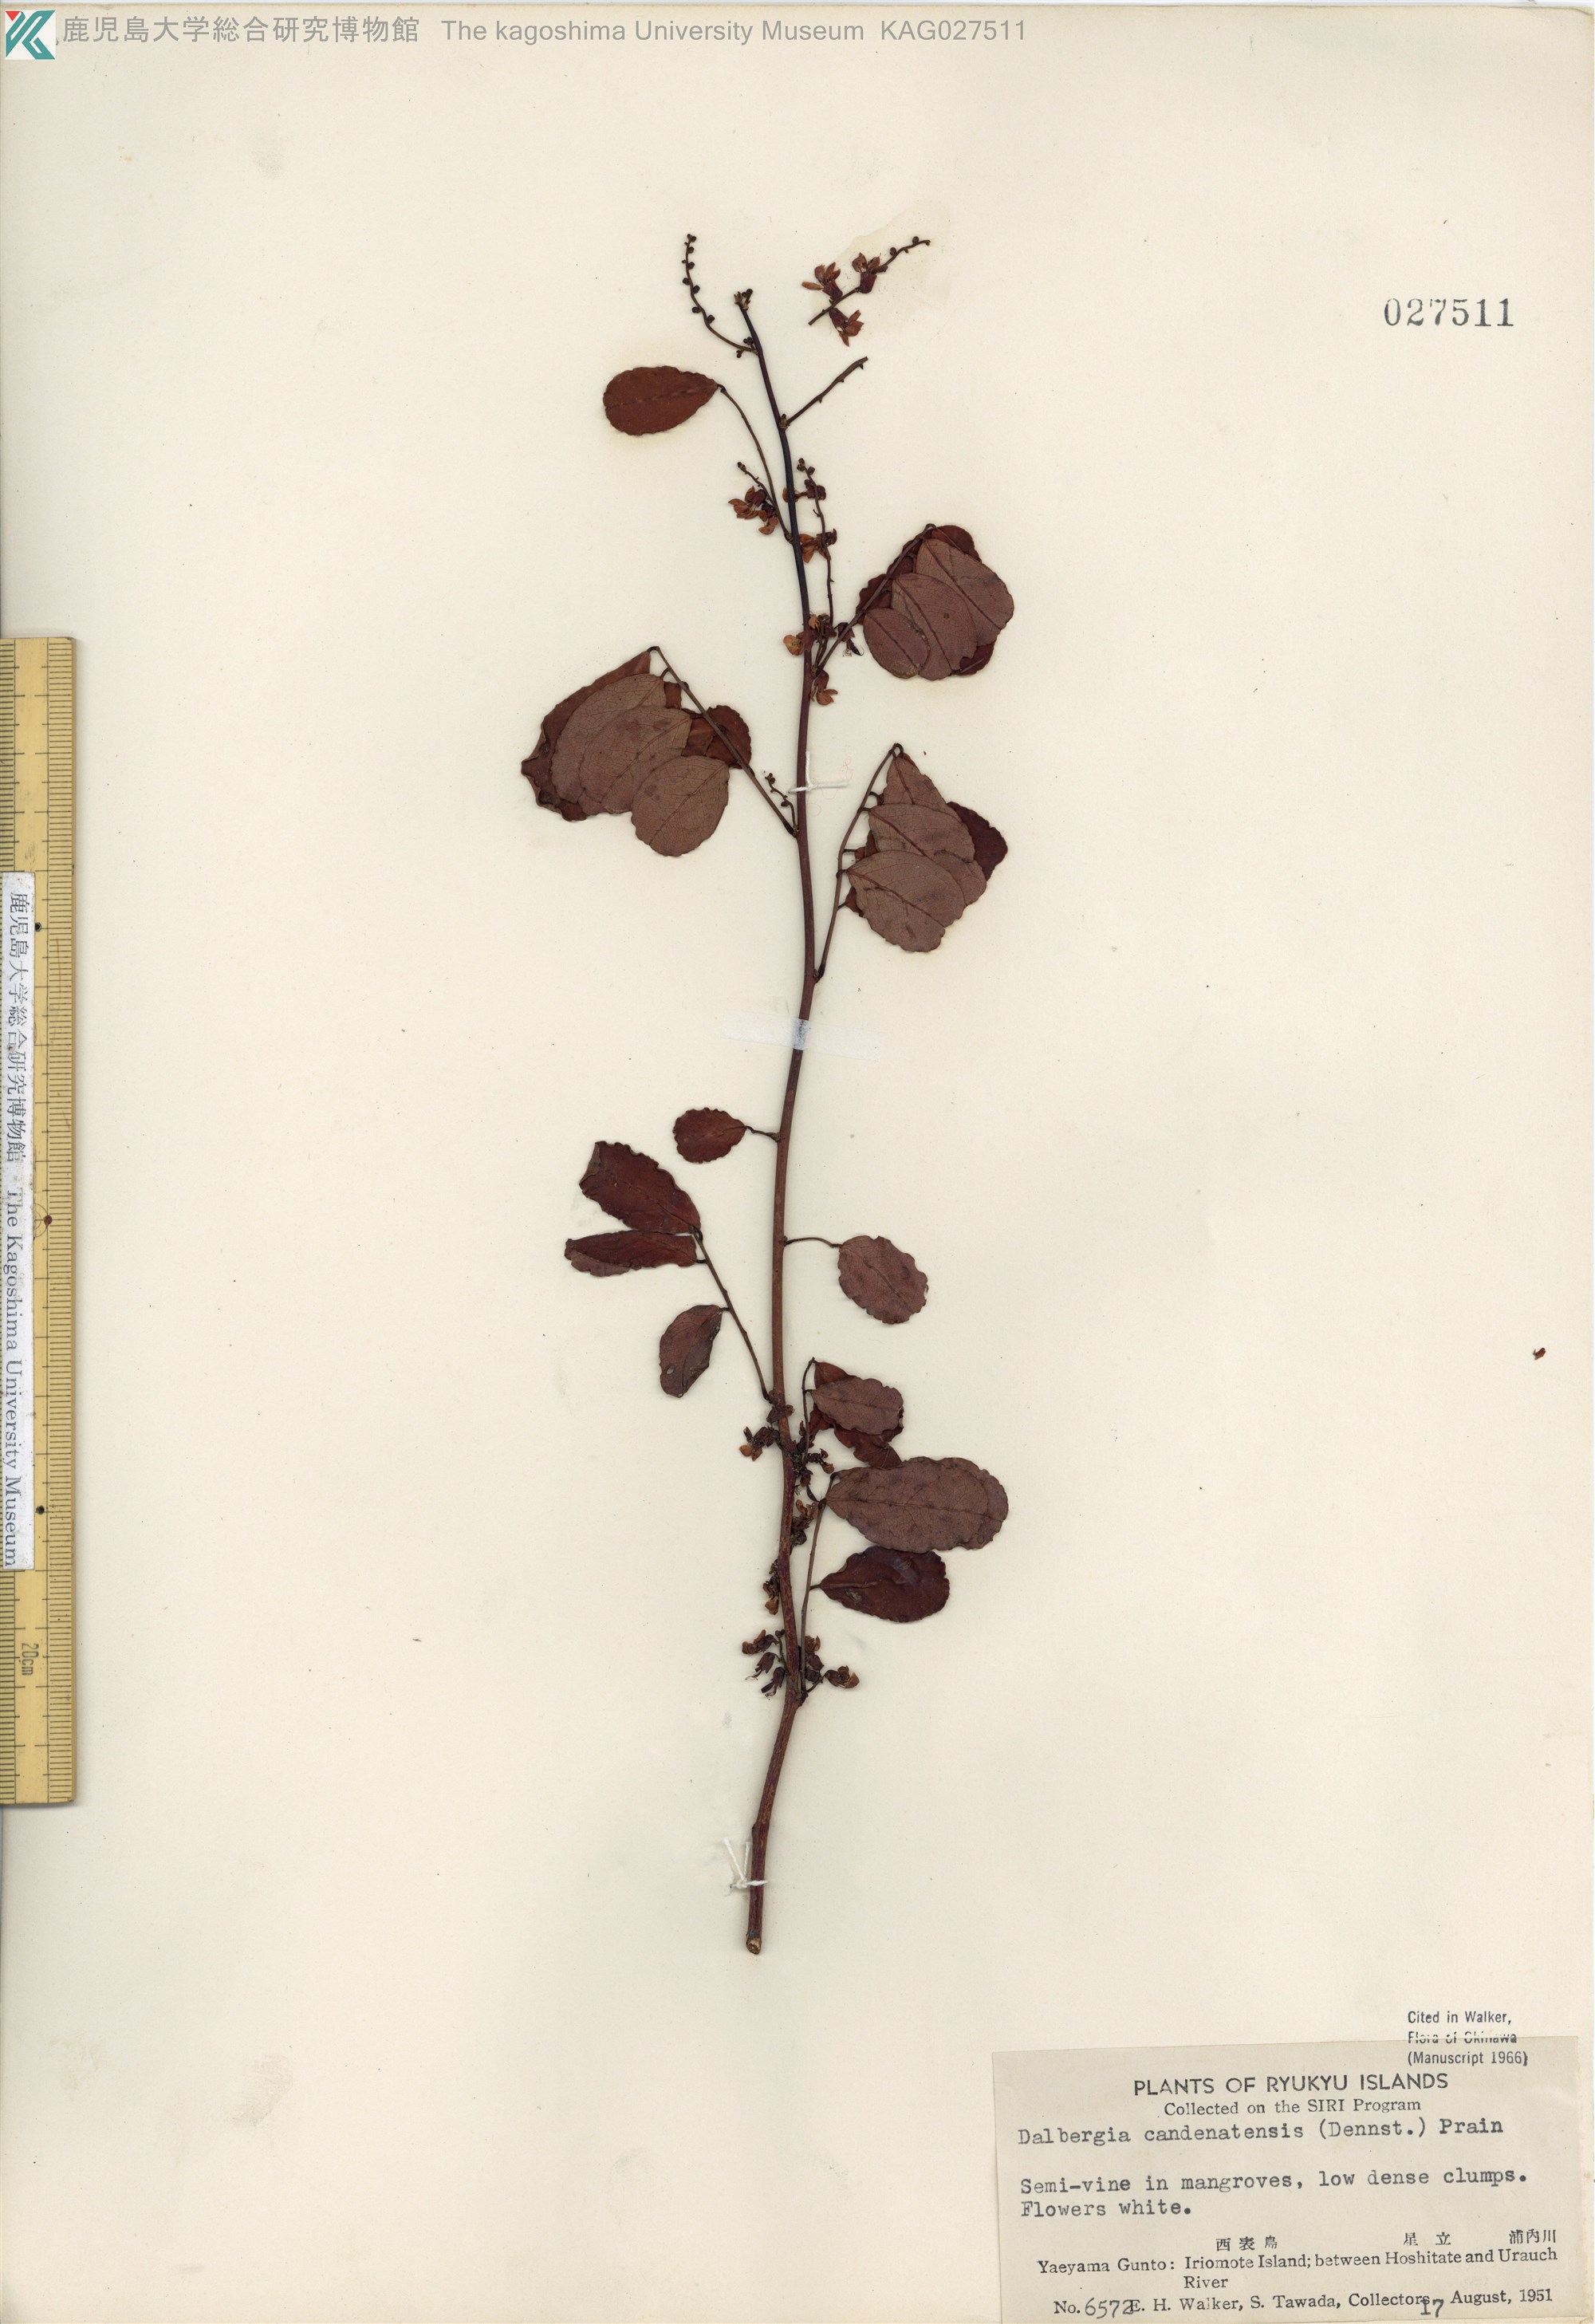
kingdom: Plantae
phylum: Tracheophyta
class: Magnoliopsida
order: Fabales
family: Fabaceae
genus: Dalbergia
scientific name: Dalbergia candenatensis
